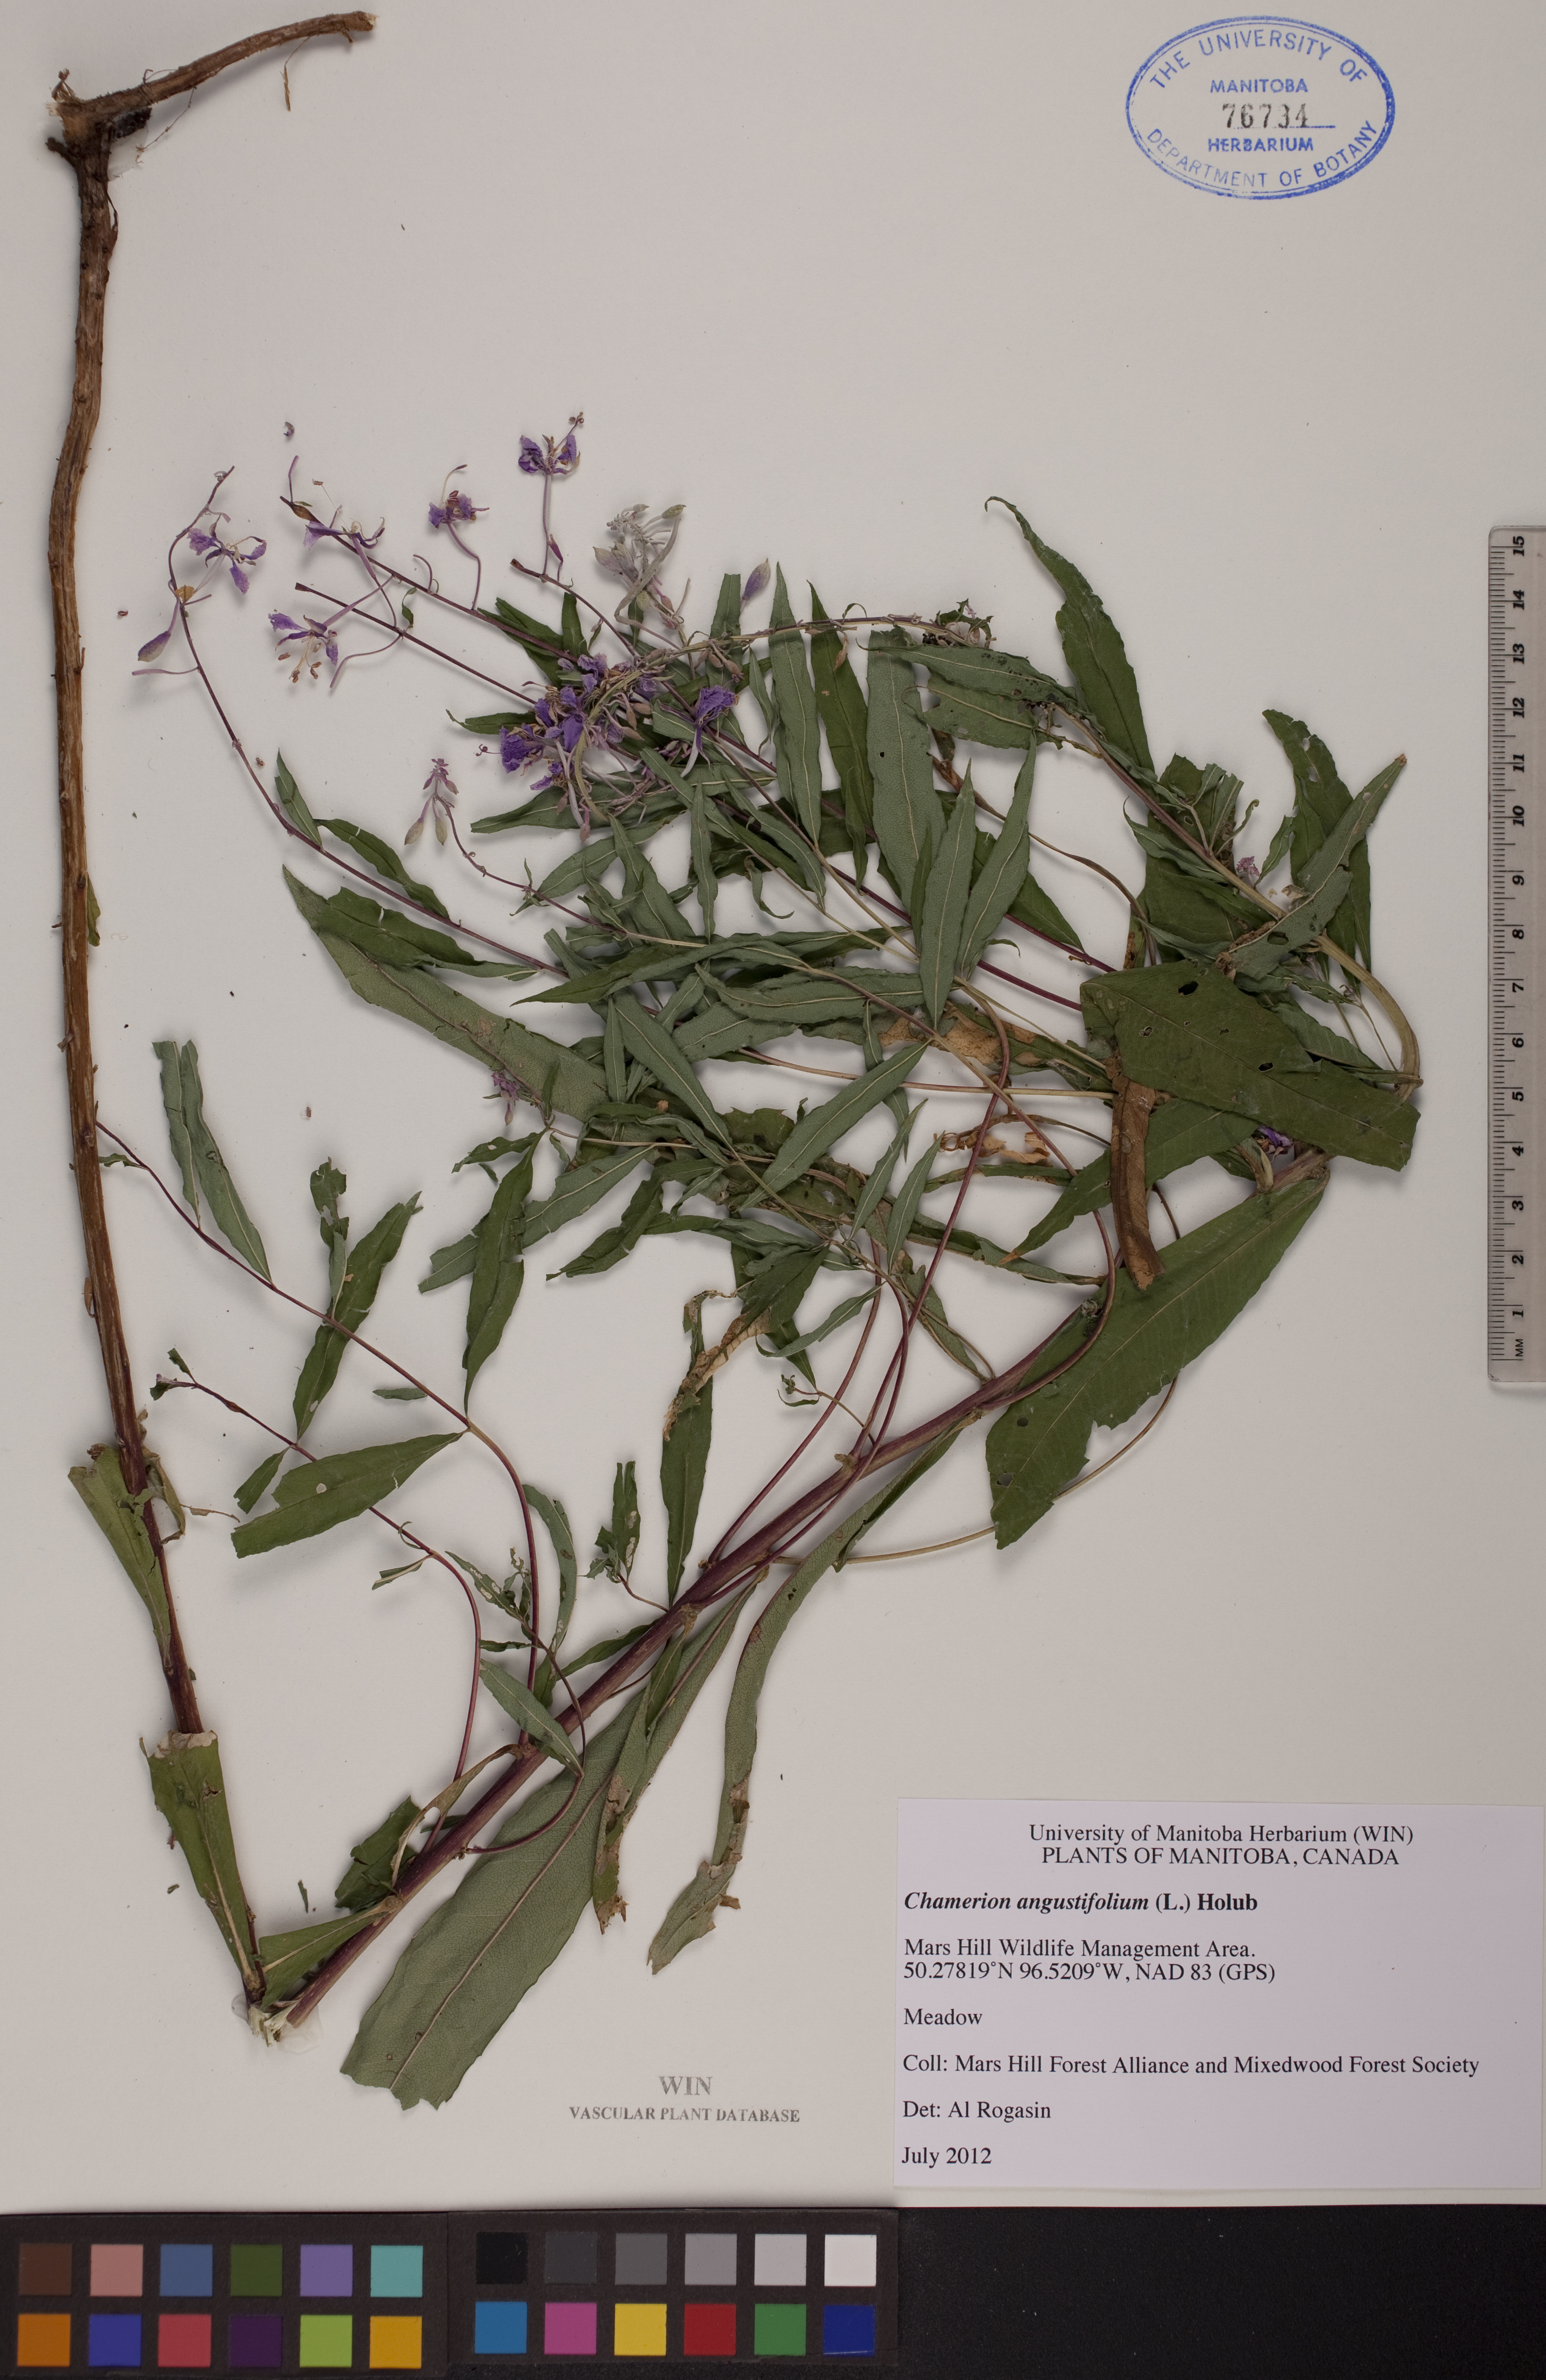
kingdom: Plantae
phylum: Tracheophyta
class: Magnoliopsida
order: Myrtales
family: Onagraceae
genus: Chamaenerion
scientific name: Chamaenerion angustifolium
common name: Fireweed
